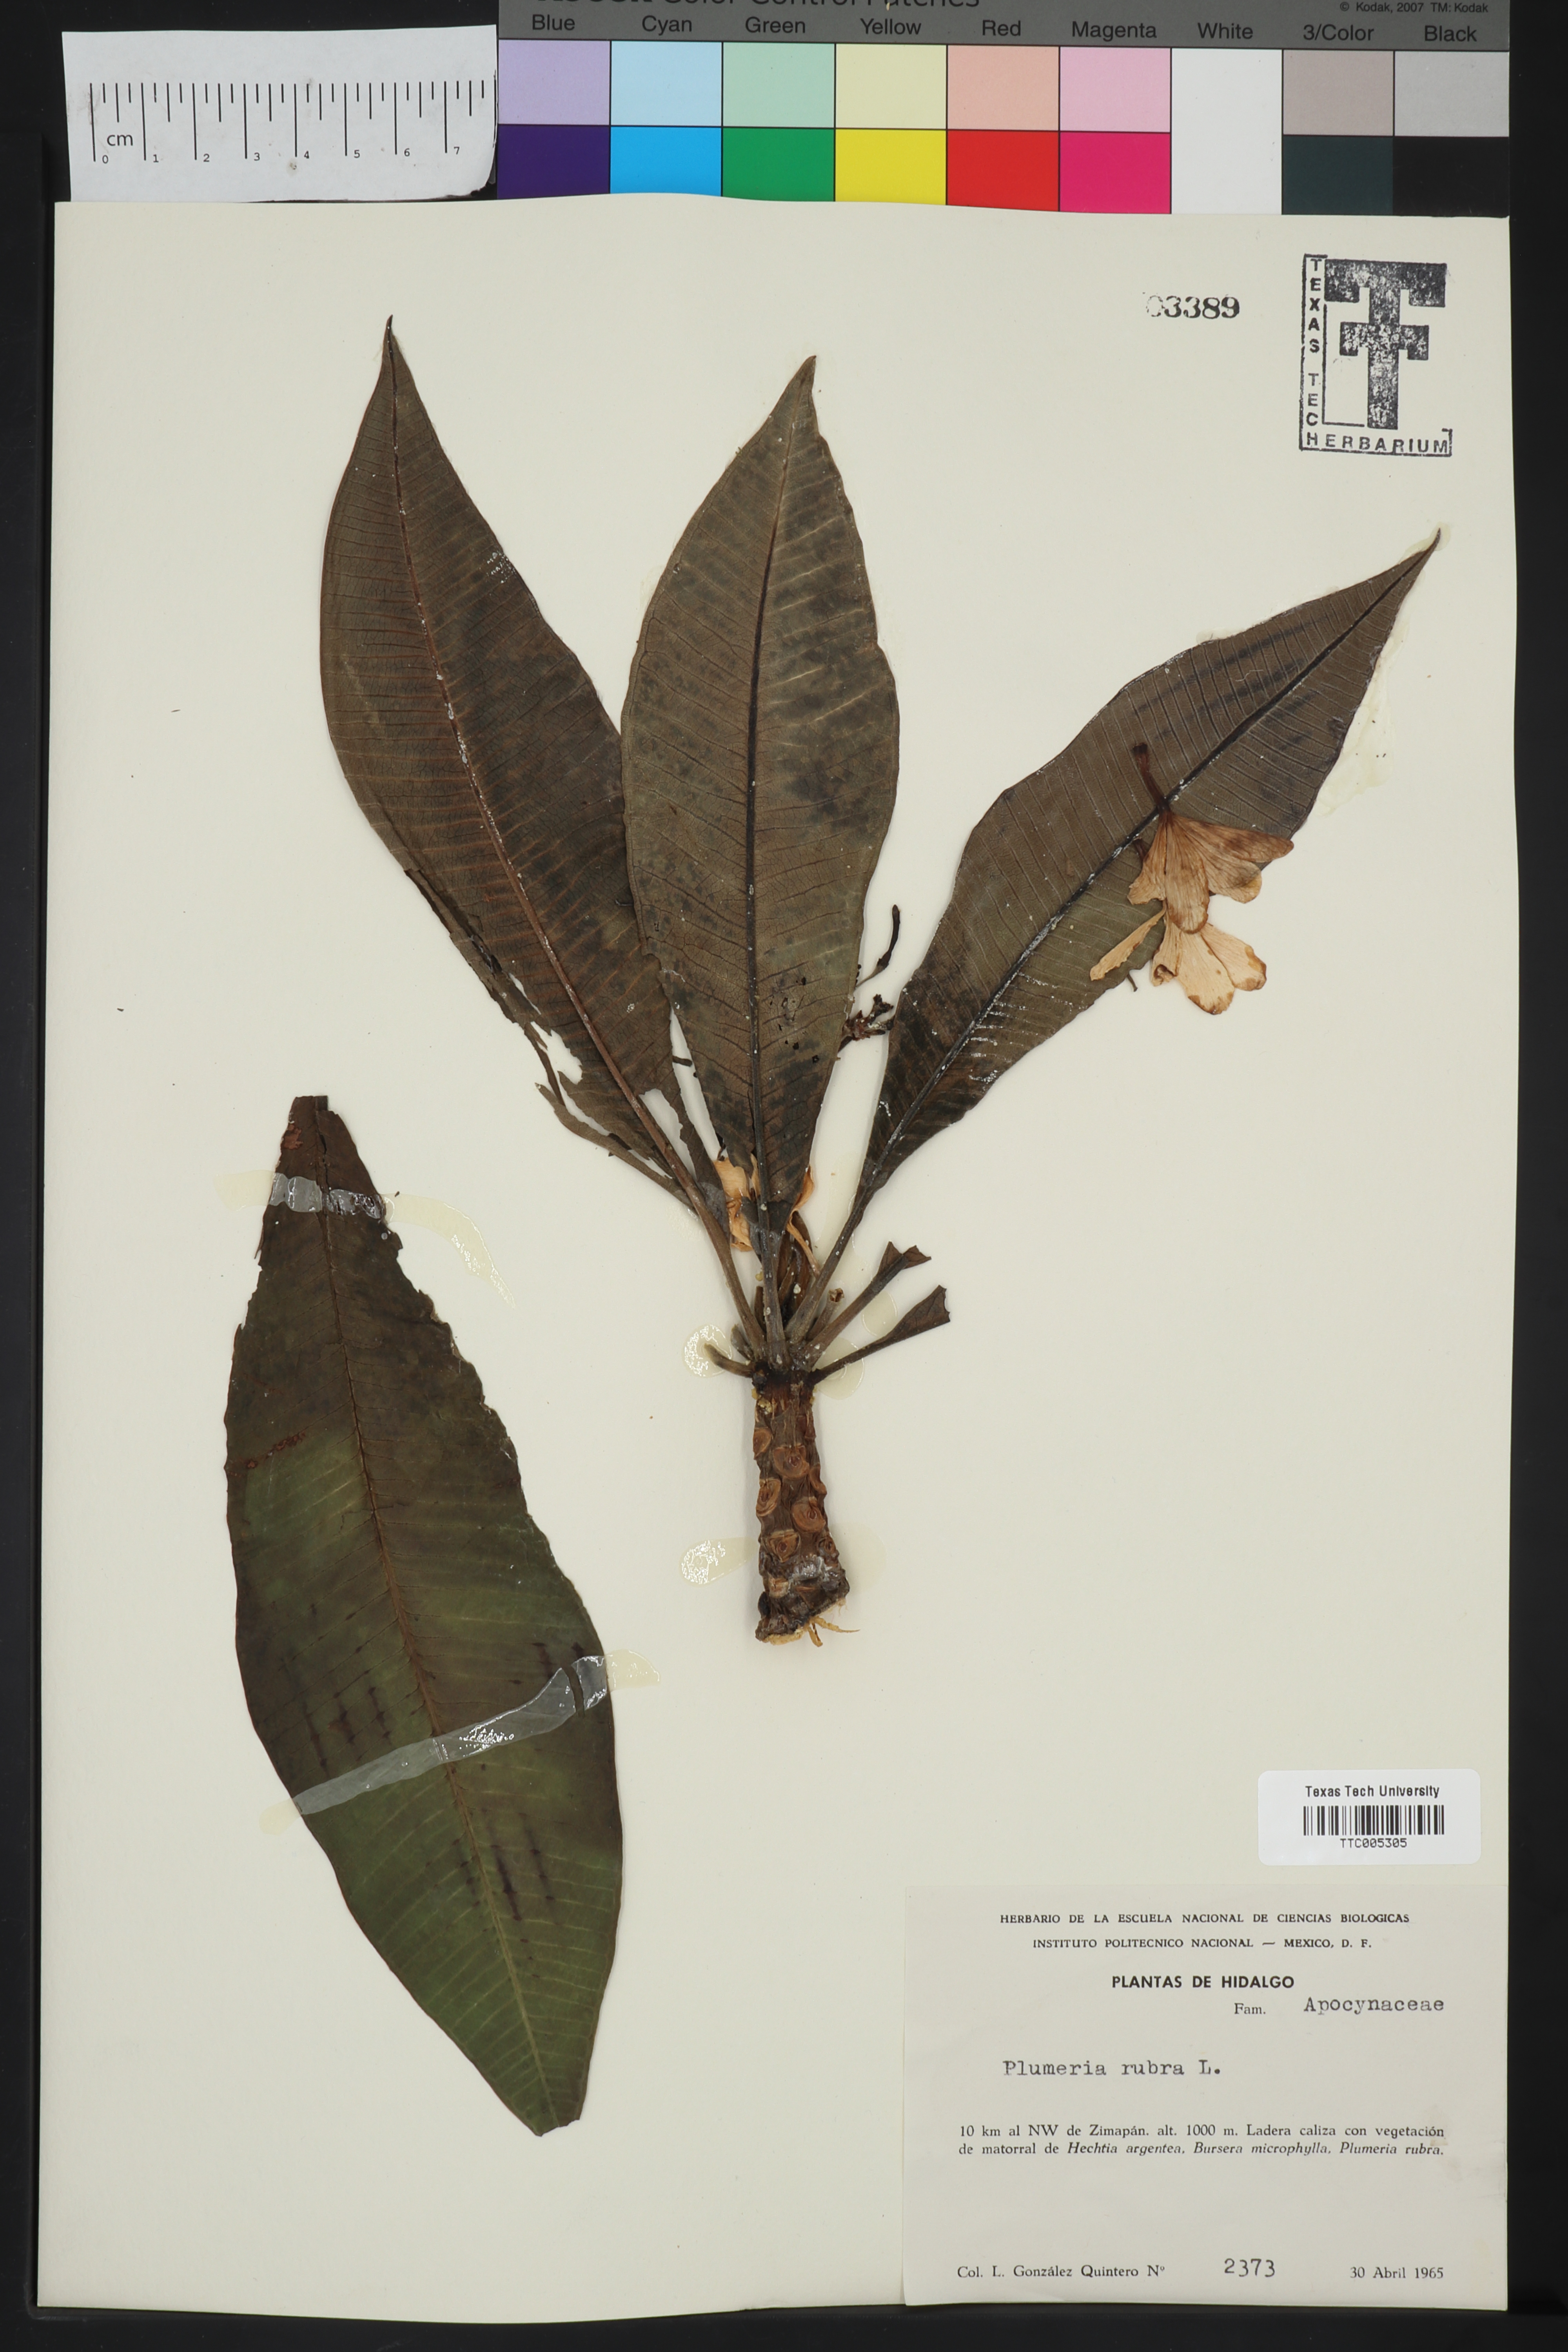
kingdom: Plantae
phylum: Tracheophyta
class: Magnoliopsida
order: Gentianales
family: Apocynaceae
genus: Plumeria
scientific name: Plumeria rubra
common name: Pagoda-tree
